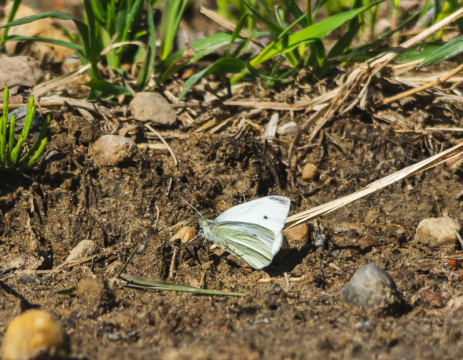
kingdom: Animalia
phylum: Arthropoda
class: Insecta
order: Lepidoptera
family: Pieridae
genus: Pieris
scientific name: Pieris rapae
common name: Cabbage White
